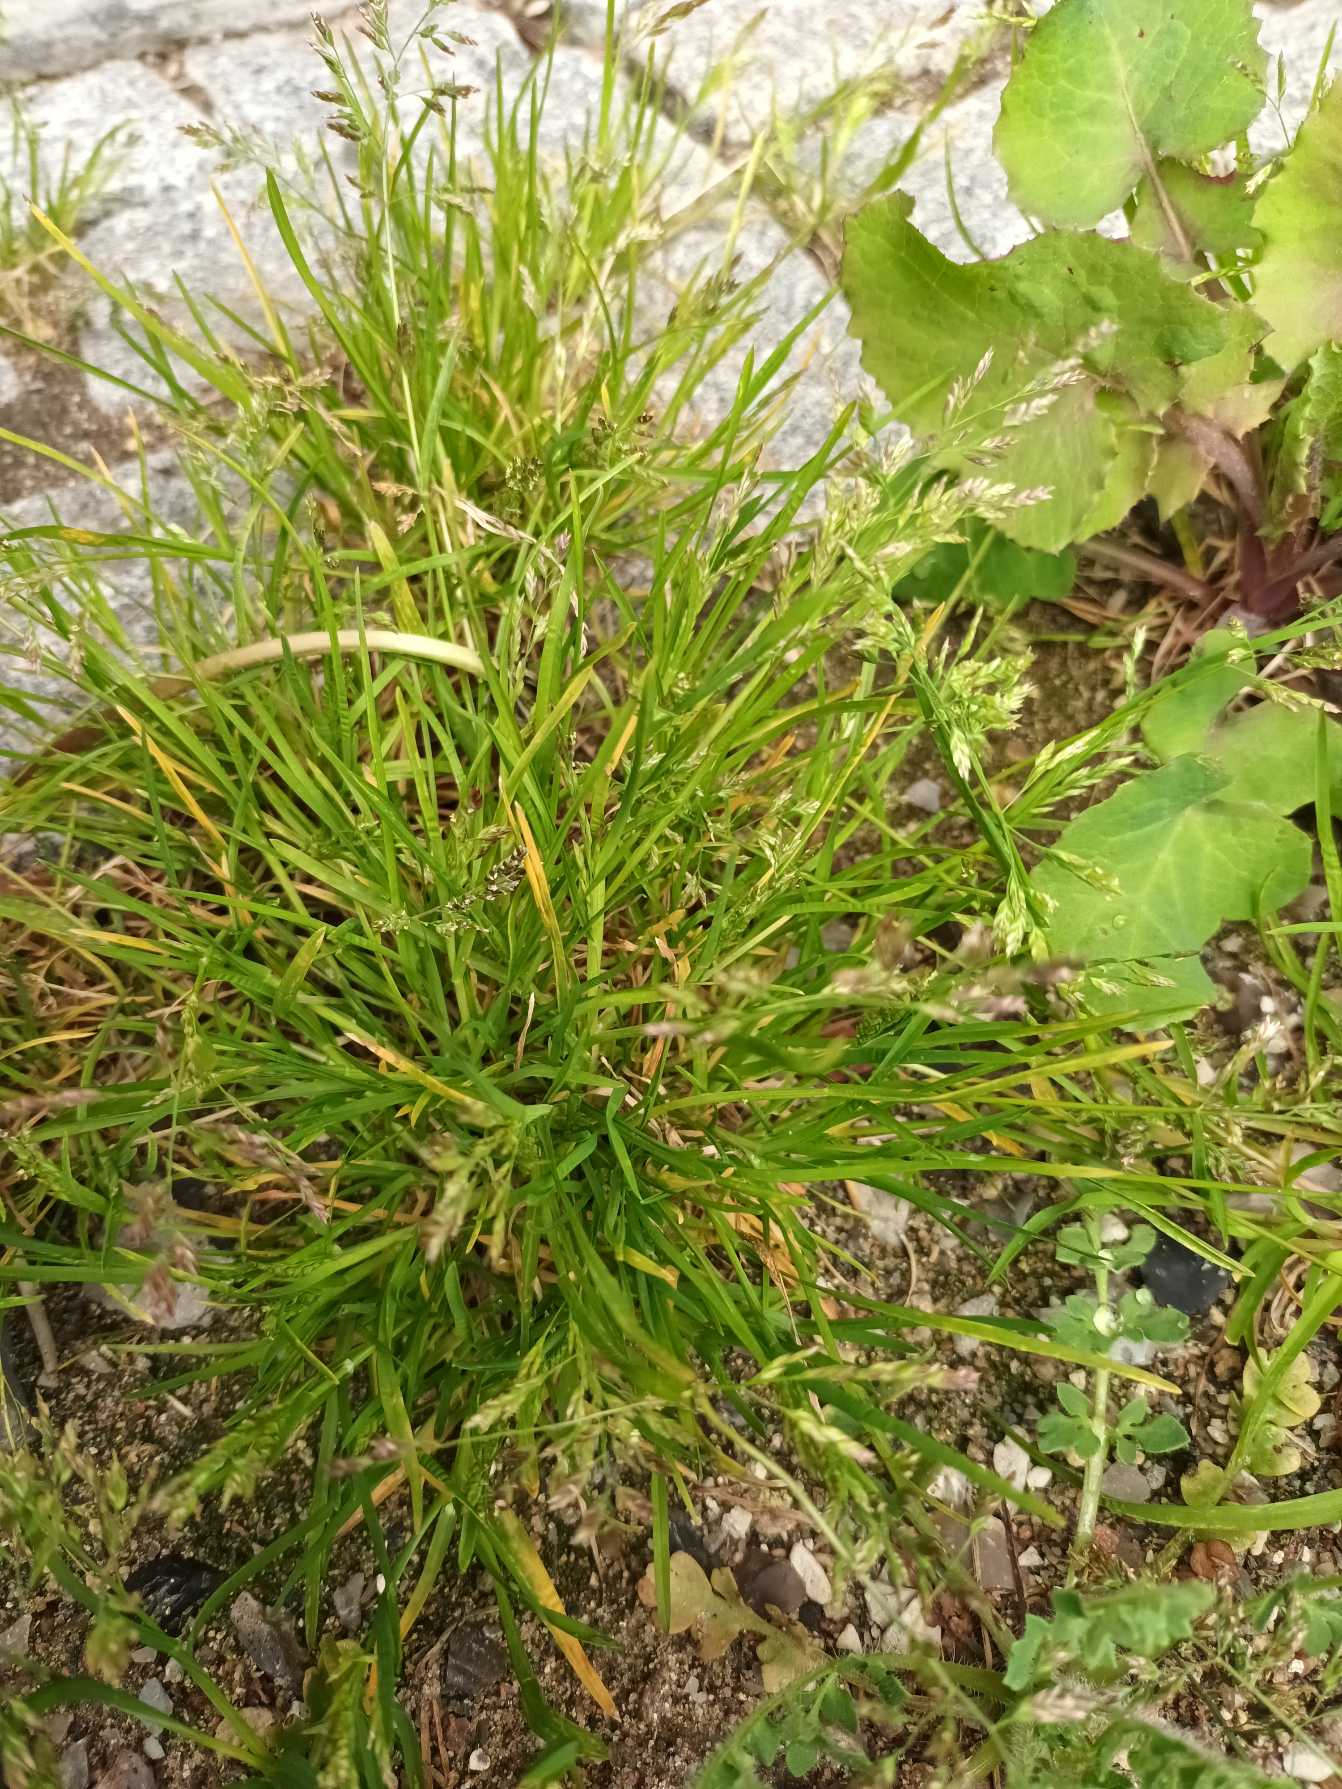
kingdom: Plantae
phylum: Tracheophyta
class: Liliopsida
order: Poales
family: Poaceae
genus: Poa
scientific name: Poa annua
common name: Enårig rapgræs
